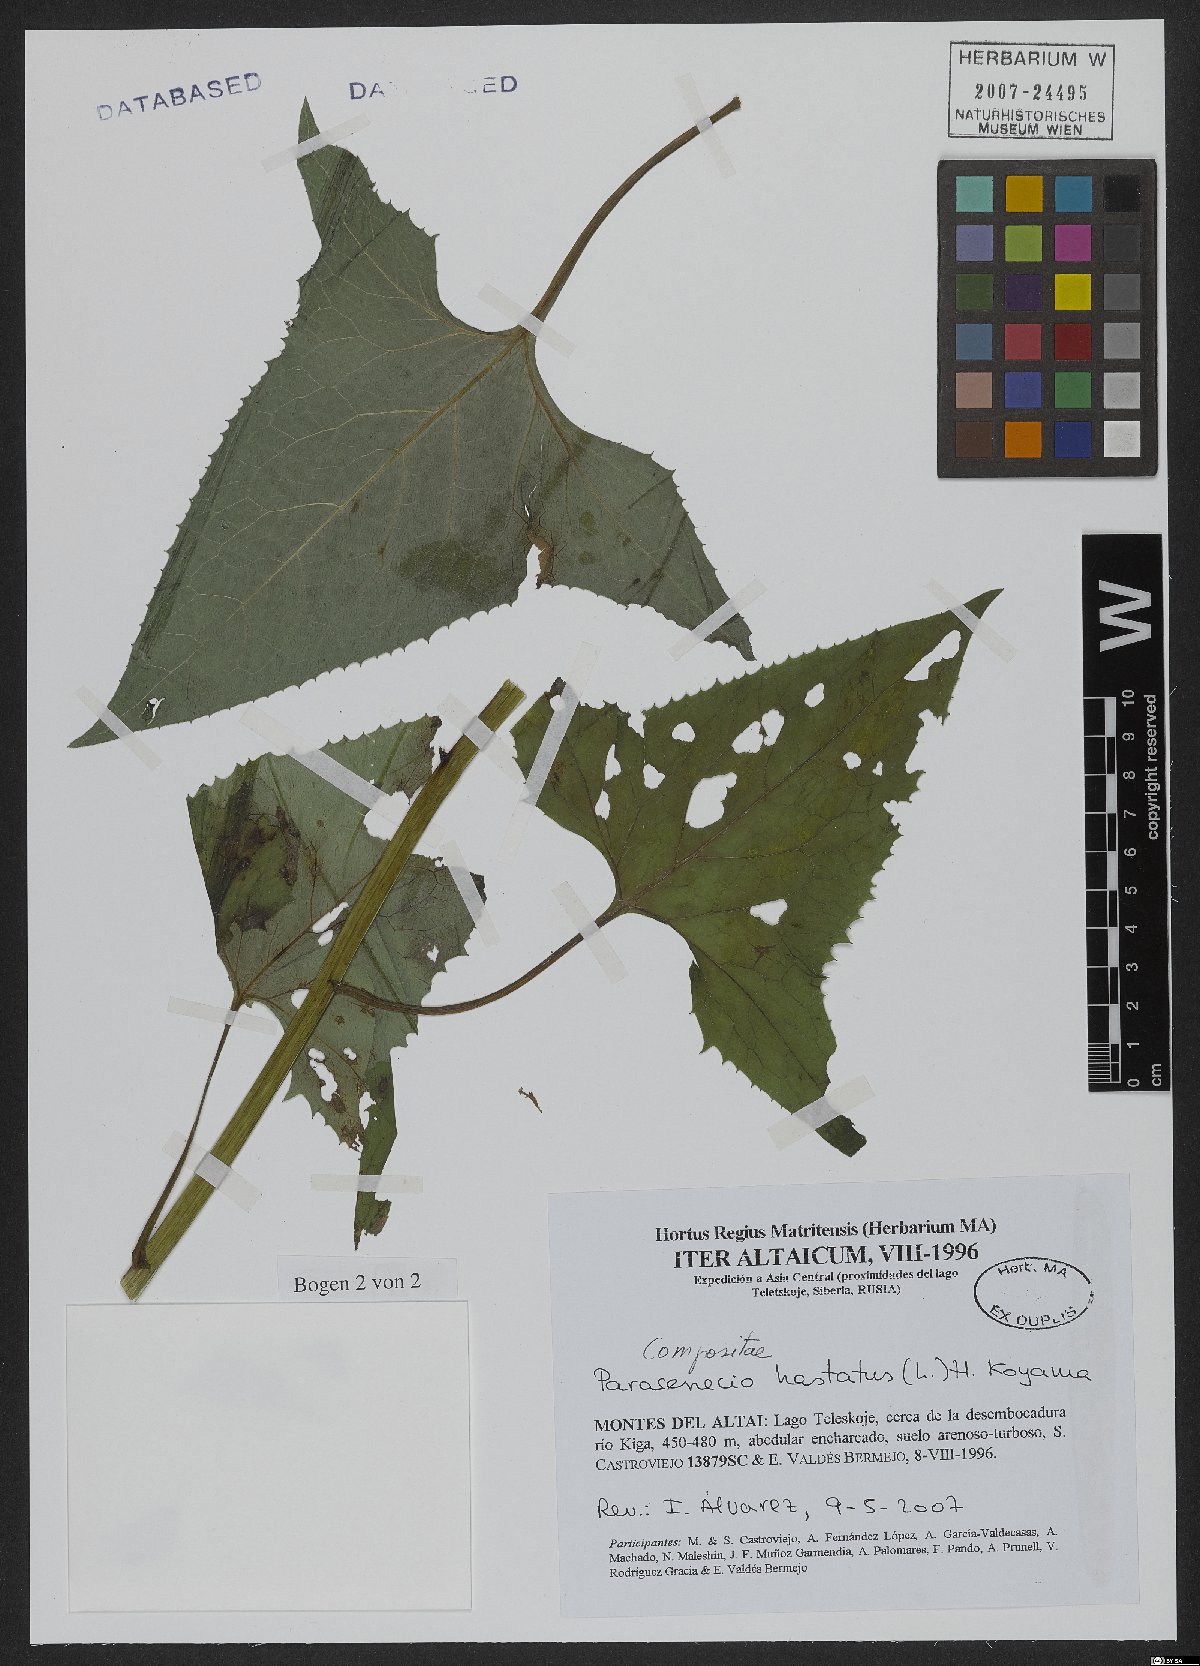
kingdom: Plantae
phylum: Tracheophyta
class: Magnoliopsida
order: Asterales
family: Asteraceae
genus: Parasenecio
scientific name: Parasenecio hastatus
